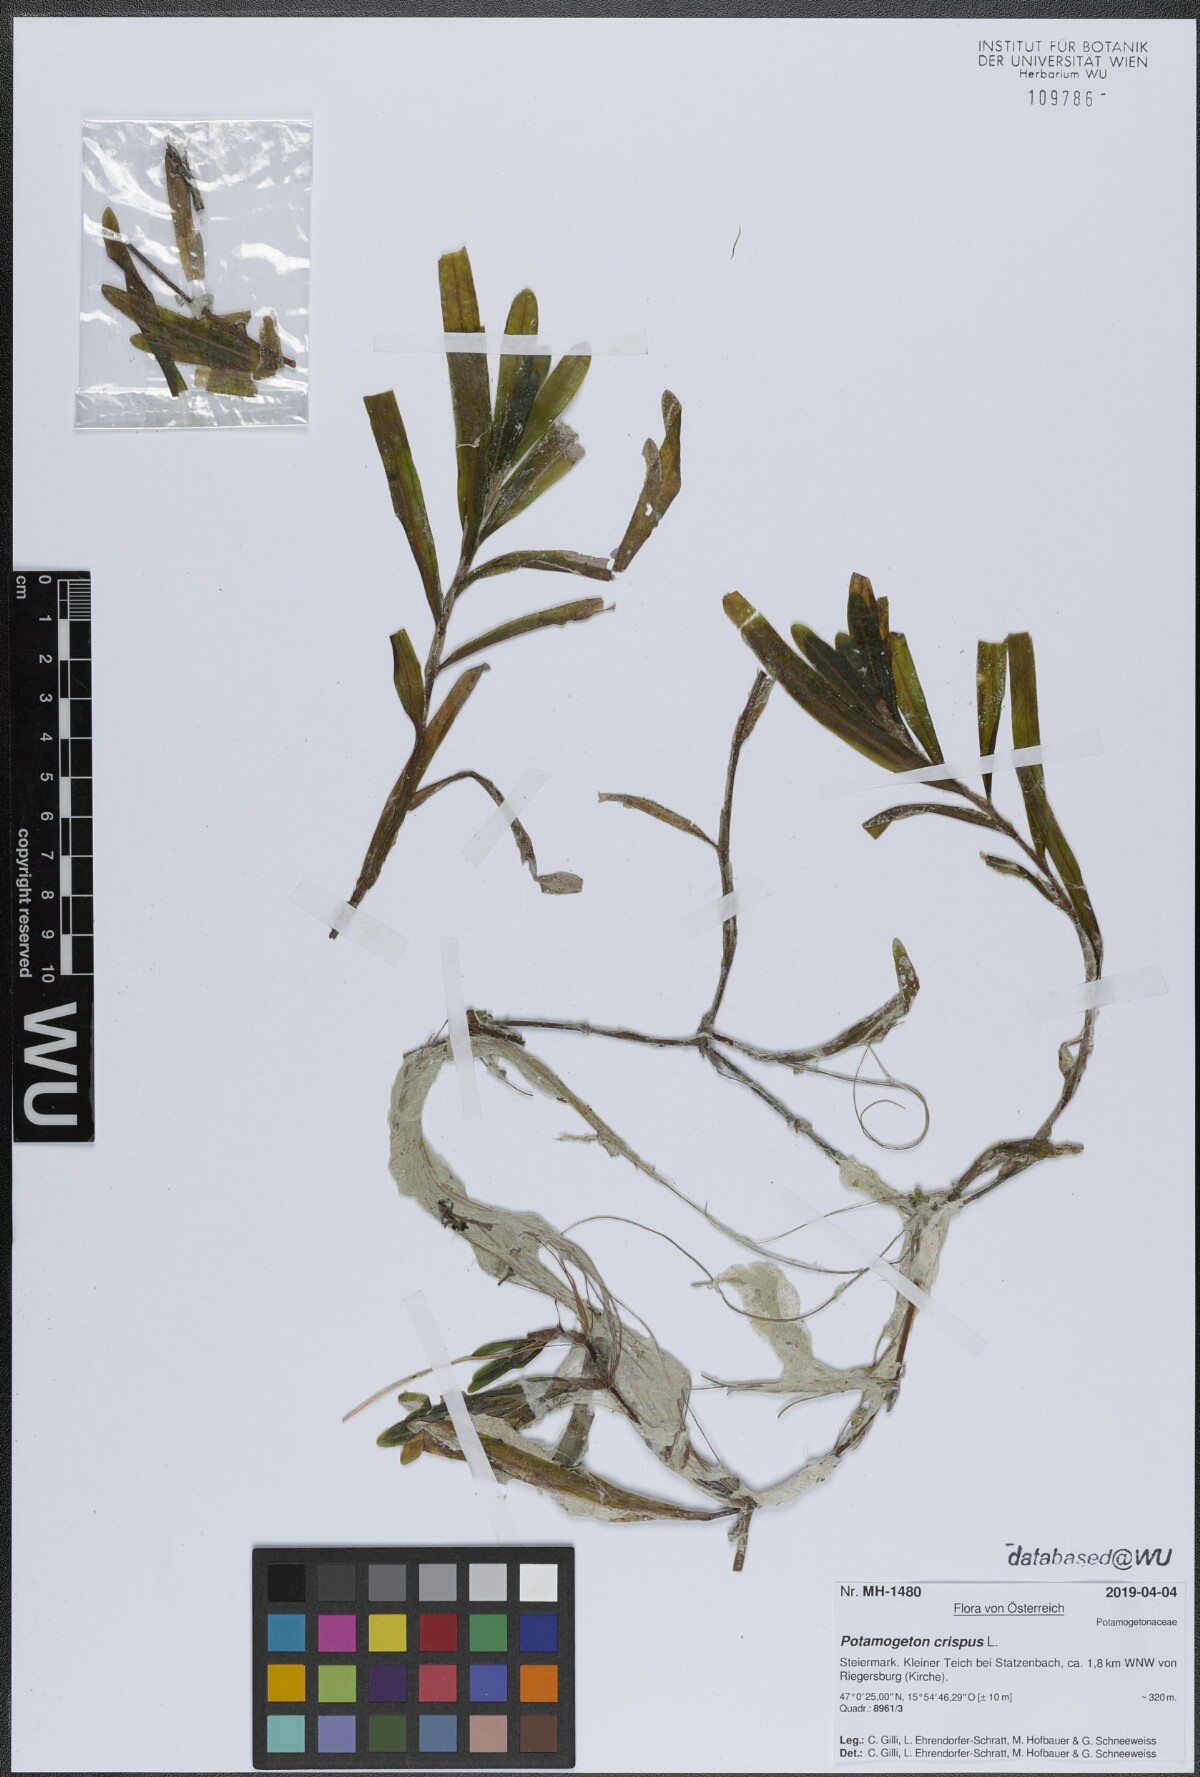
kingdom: Plantae
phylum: Tracheophyta
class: Liliopsida
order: Alismatales
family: Potamogetonaceae
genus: Potamogeton
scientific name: Potamogeton crispus
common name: Curled pondweed
